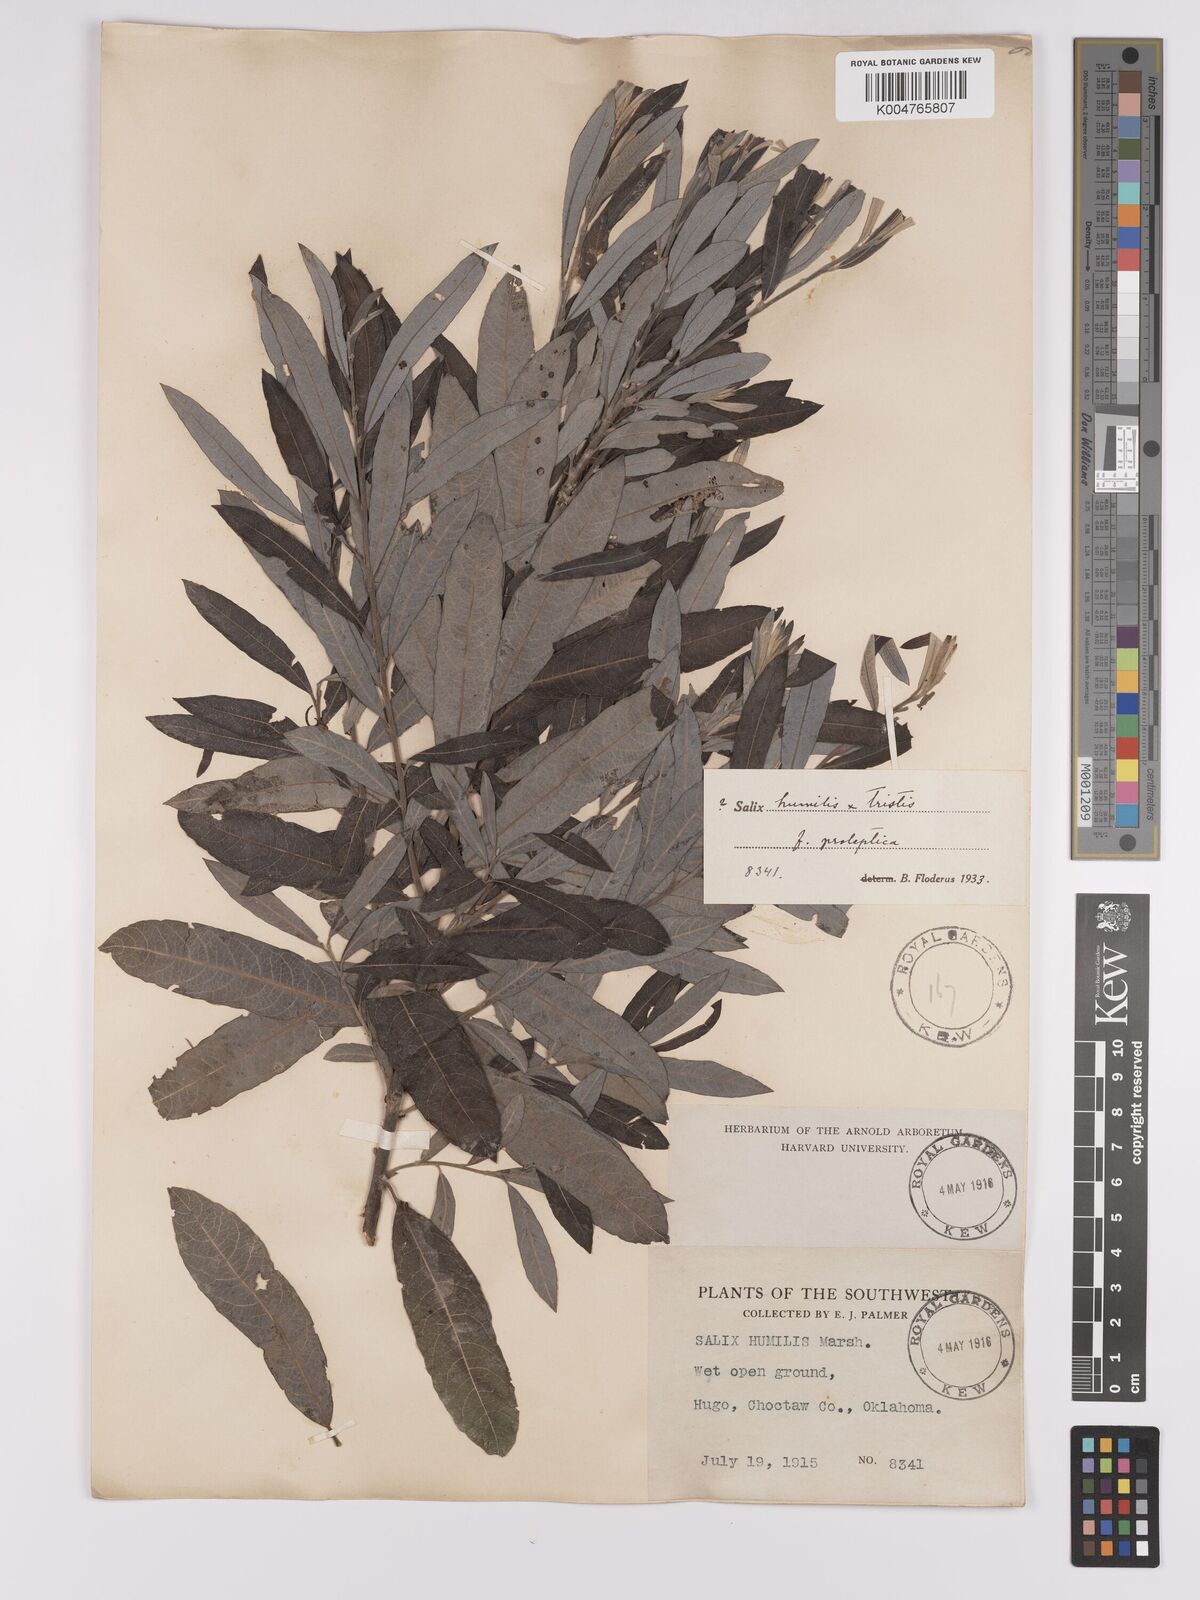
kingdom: Plantae
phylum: Tracheophyta
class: Magnoliopsida
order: Malpighiales
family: Salicaceae
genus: Salix
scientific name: Salix
